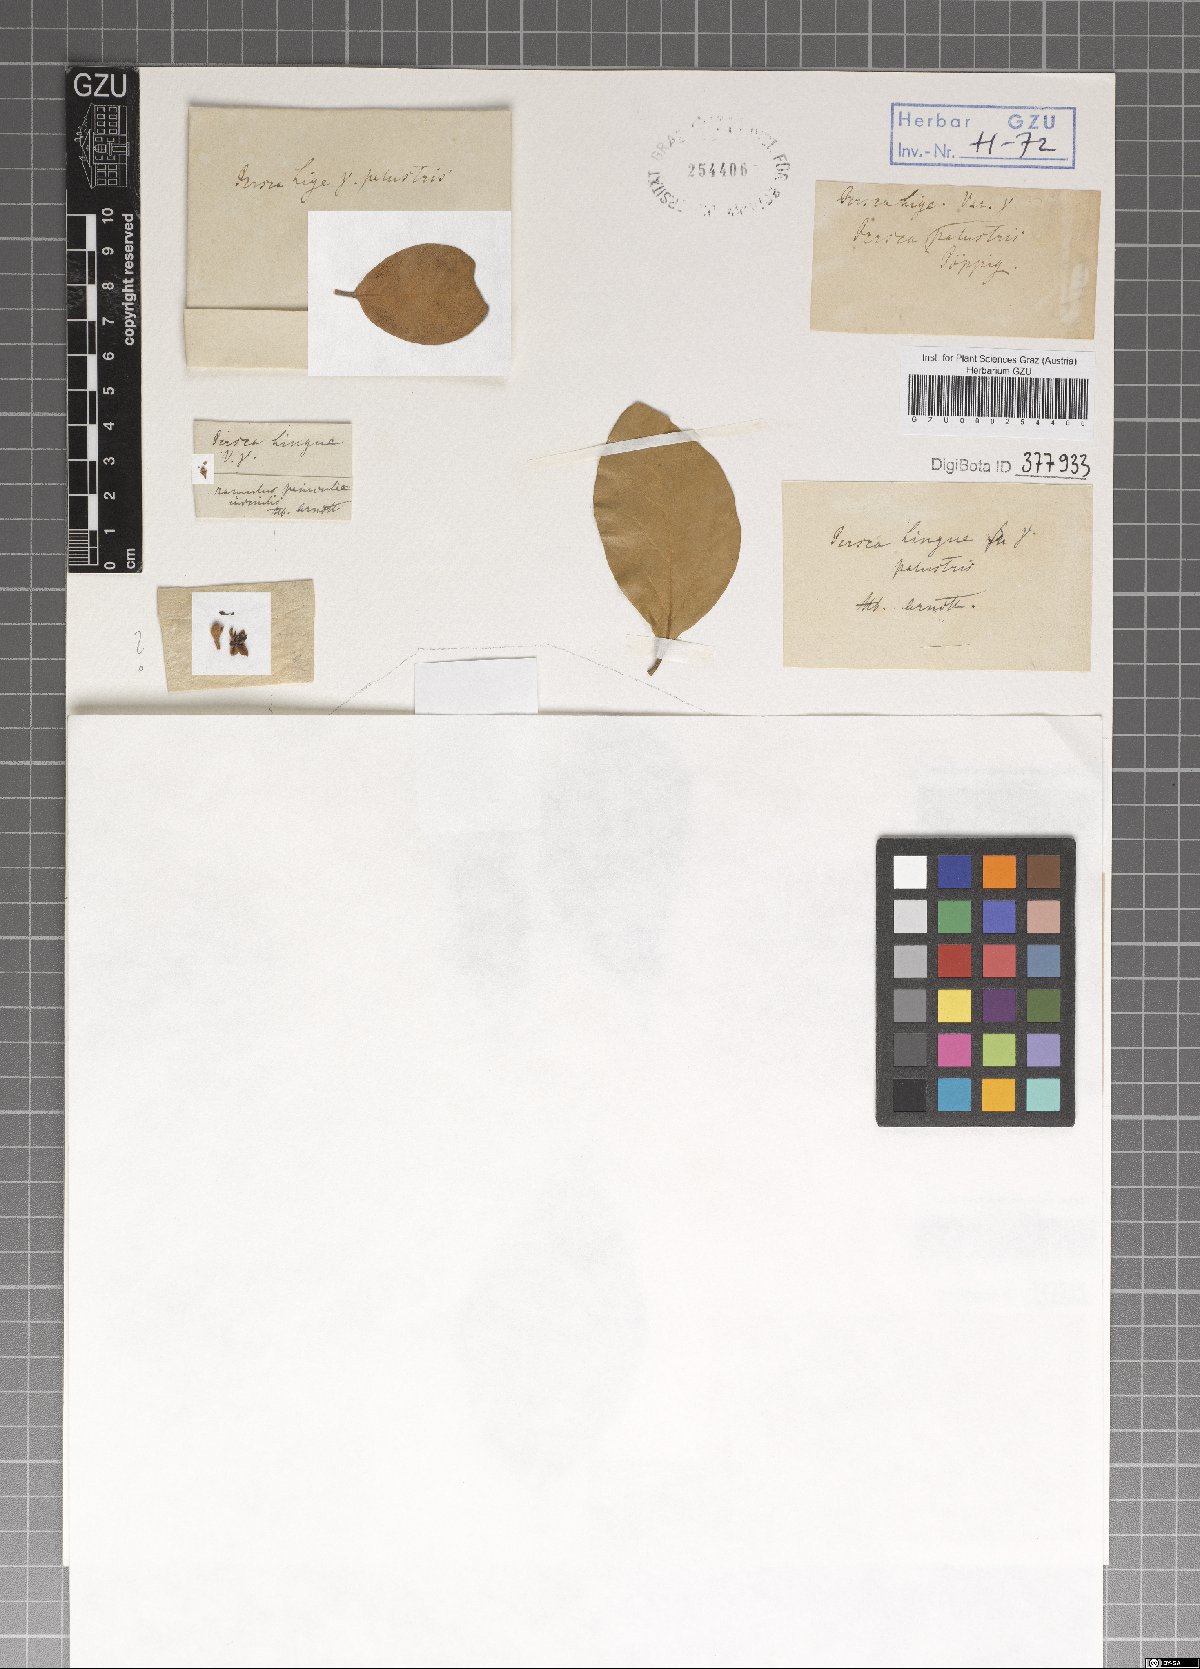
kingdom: Plantae
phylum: Tracheophyta
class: Magnoliopsida
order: Laurales
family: Lauraceae
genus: Persea
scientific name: Persea lingue
